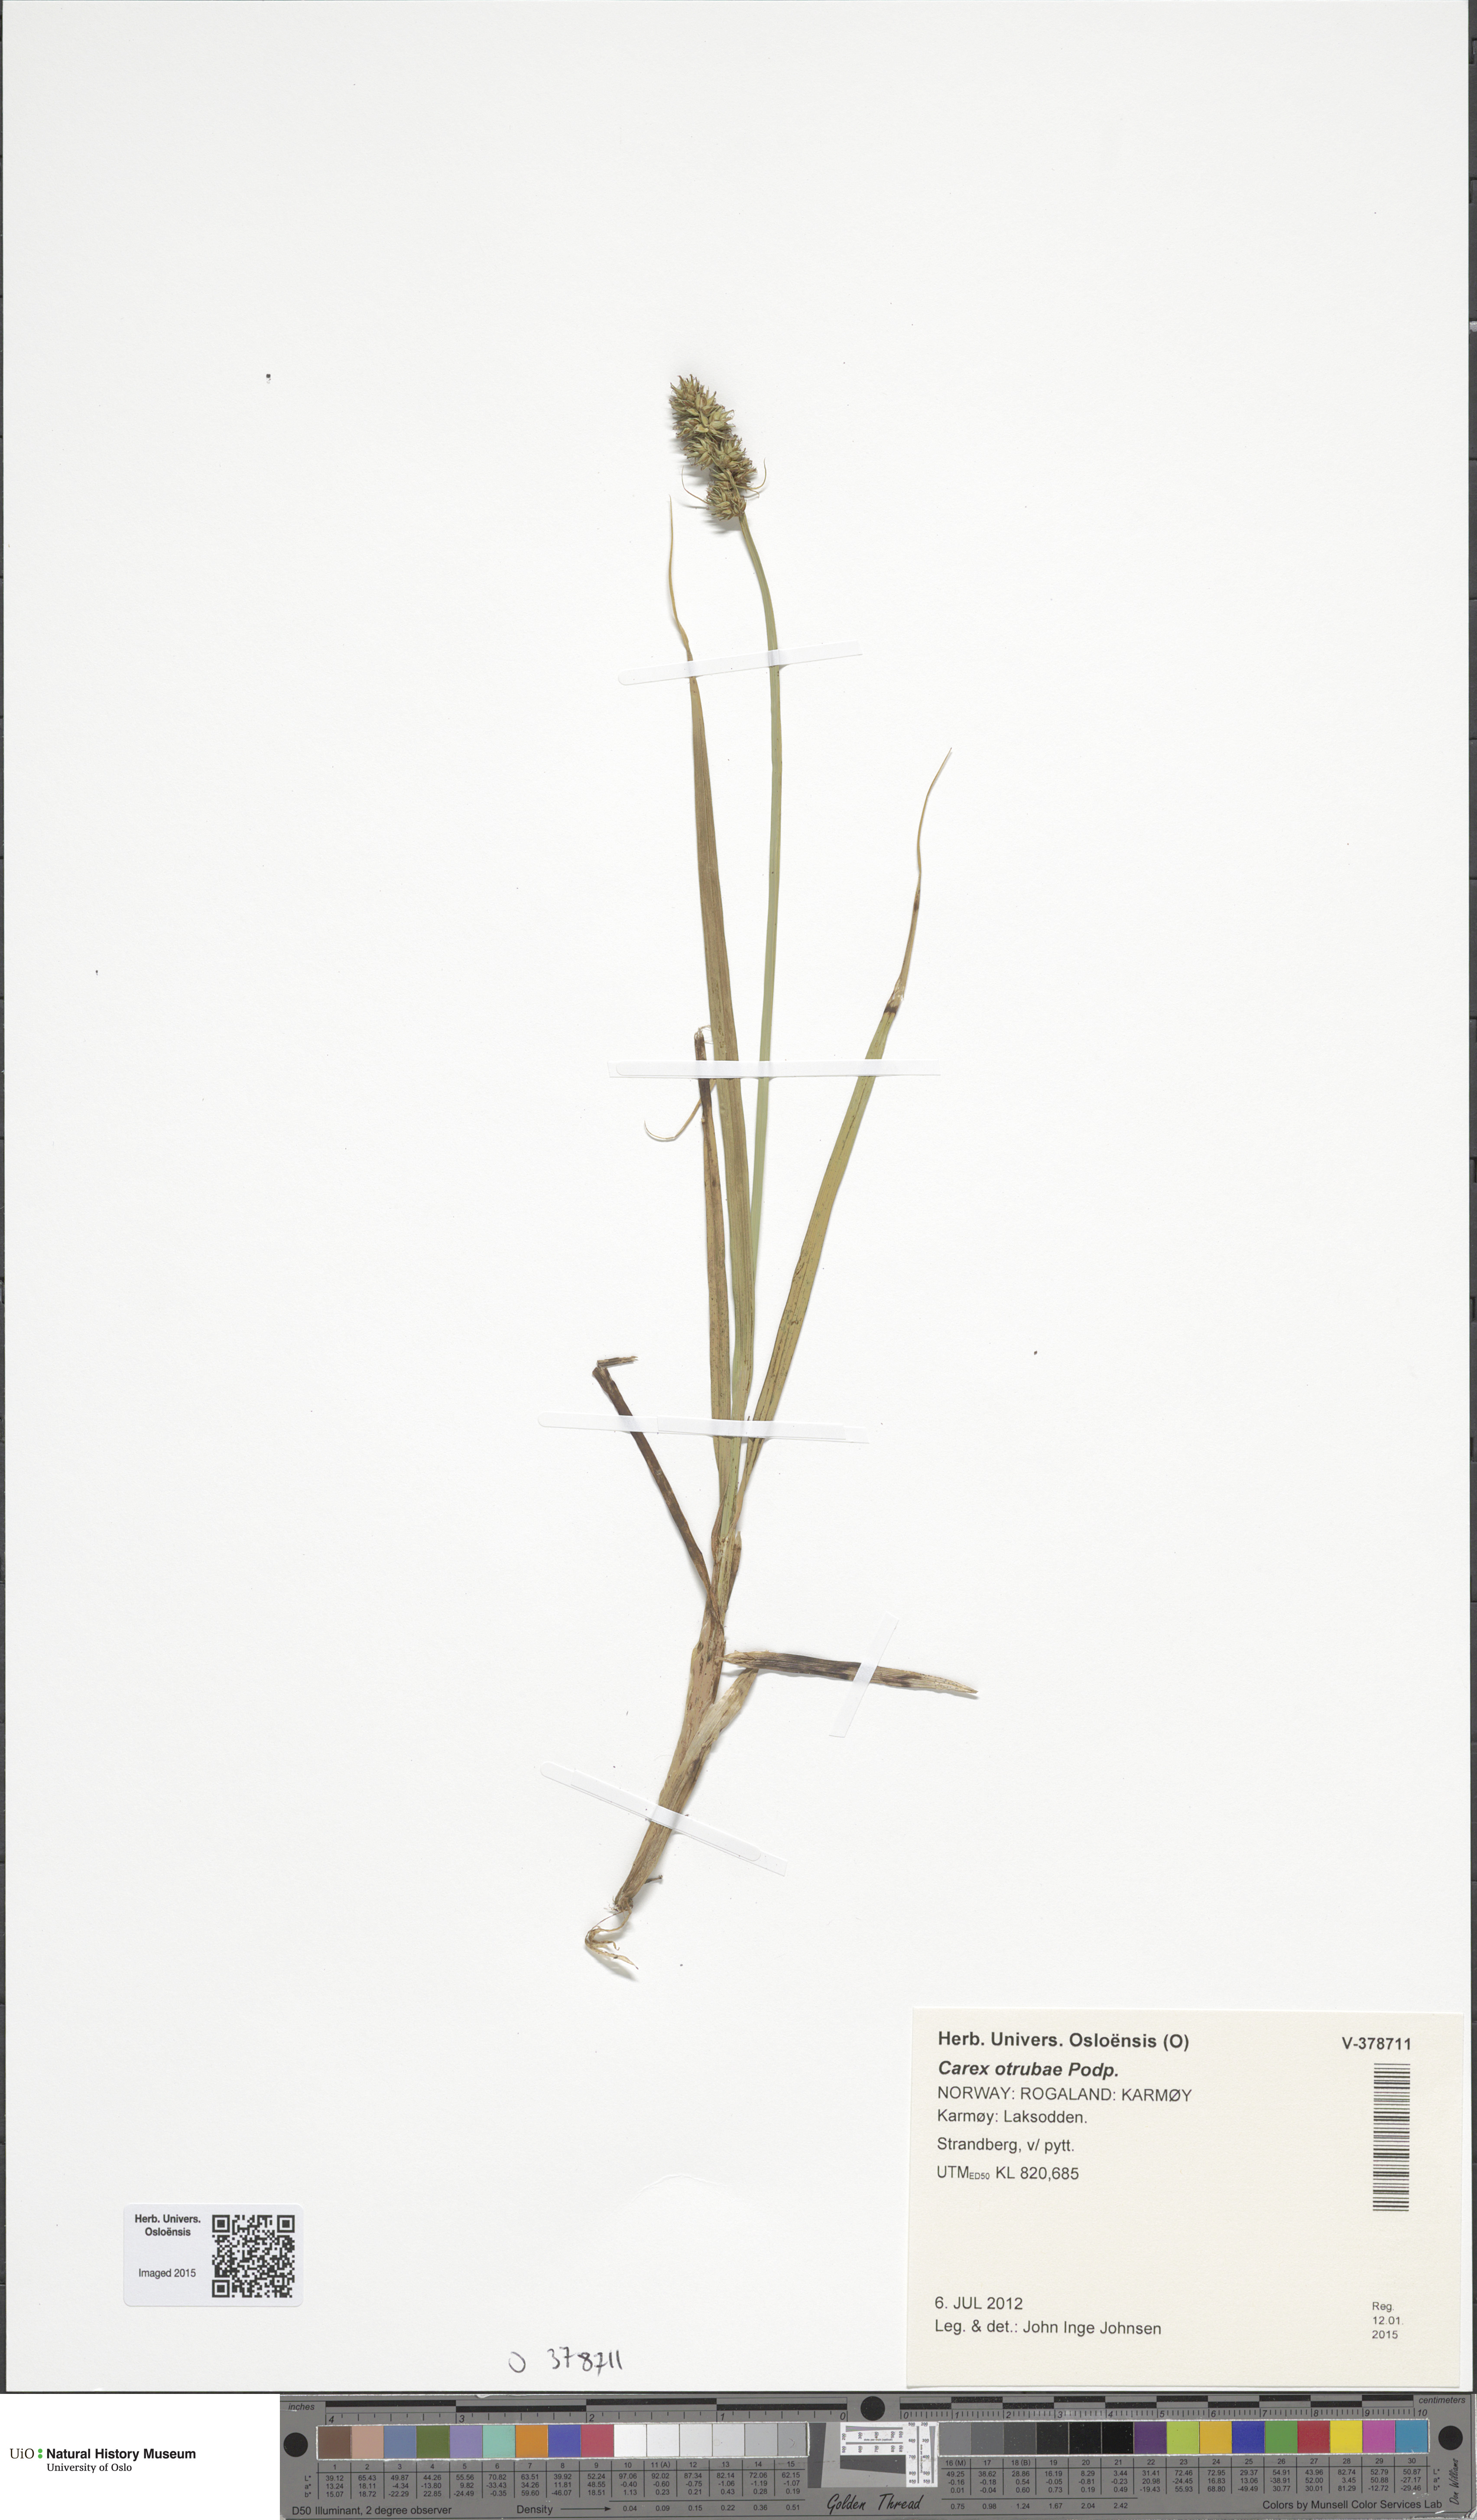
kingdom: Plantae
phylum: Tracheophyta
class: Liliopsida
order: Poales
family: Cyperaceae
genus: Carex
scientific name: Carex otrubae
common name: False fox-sedge
